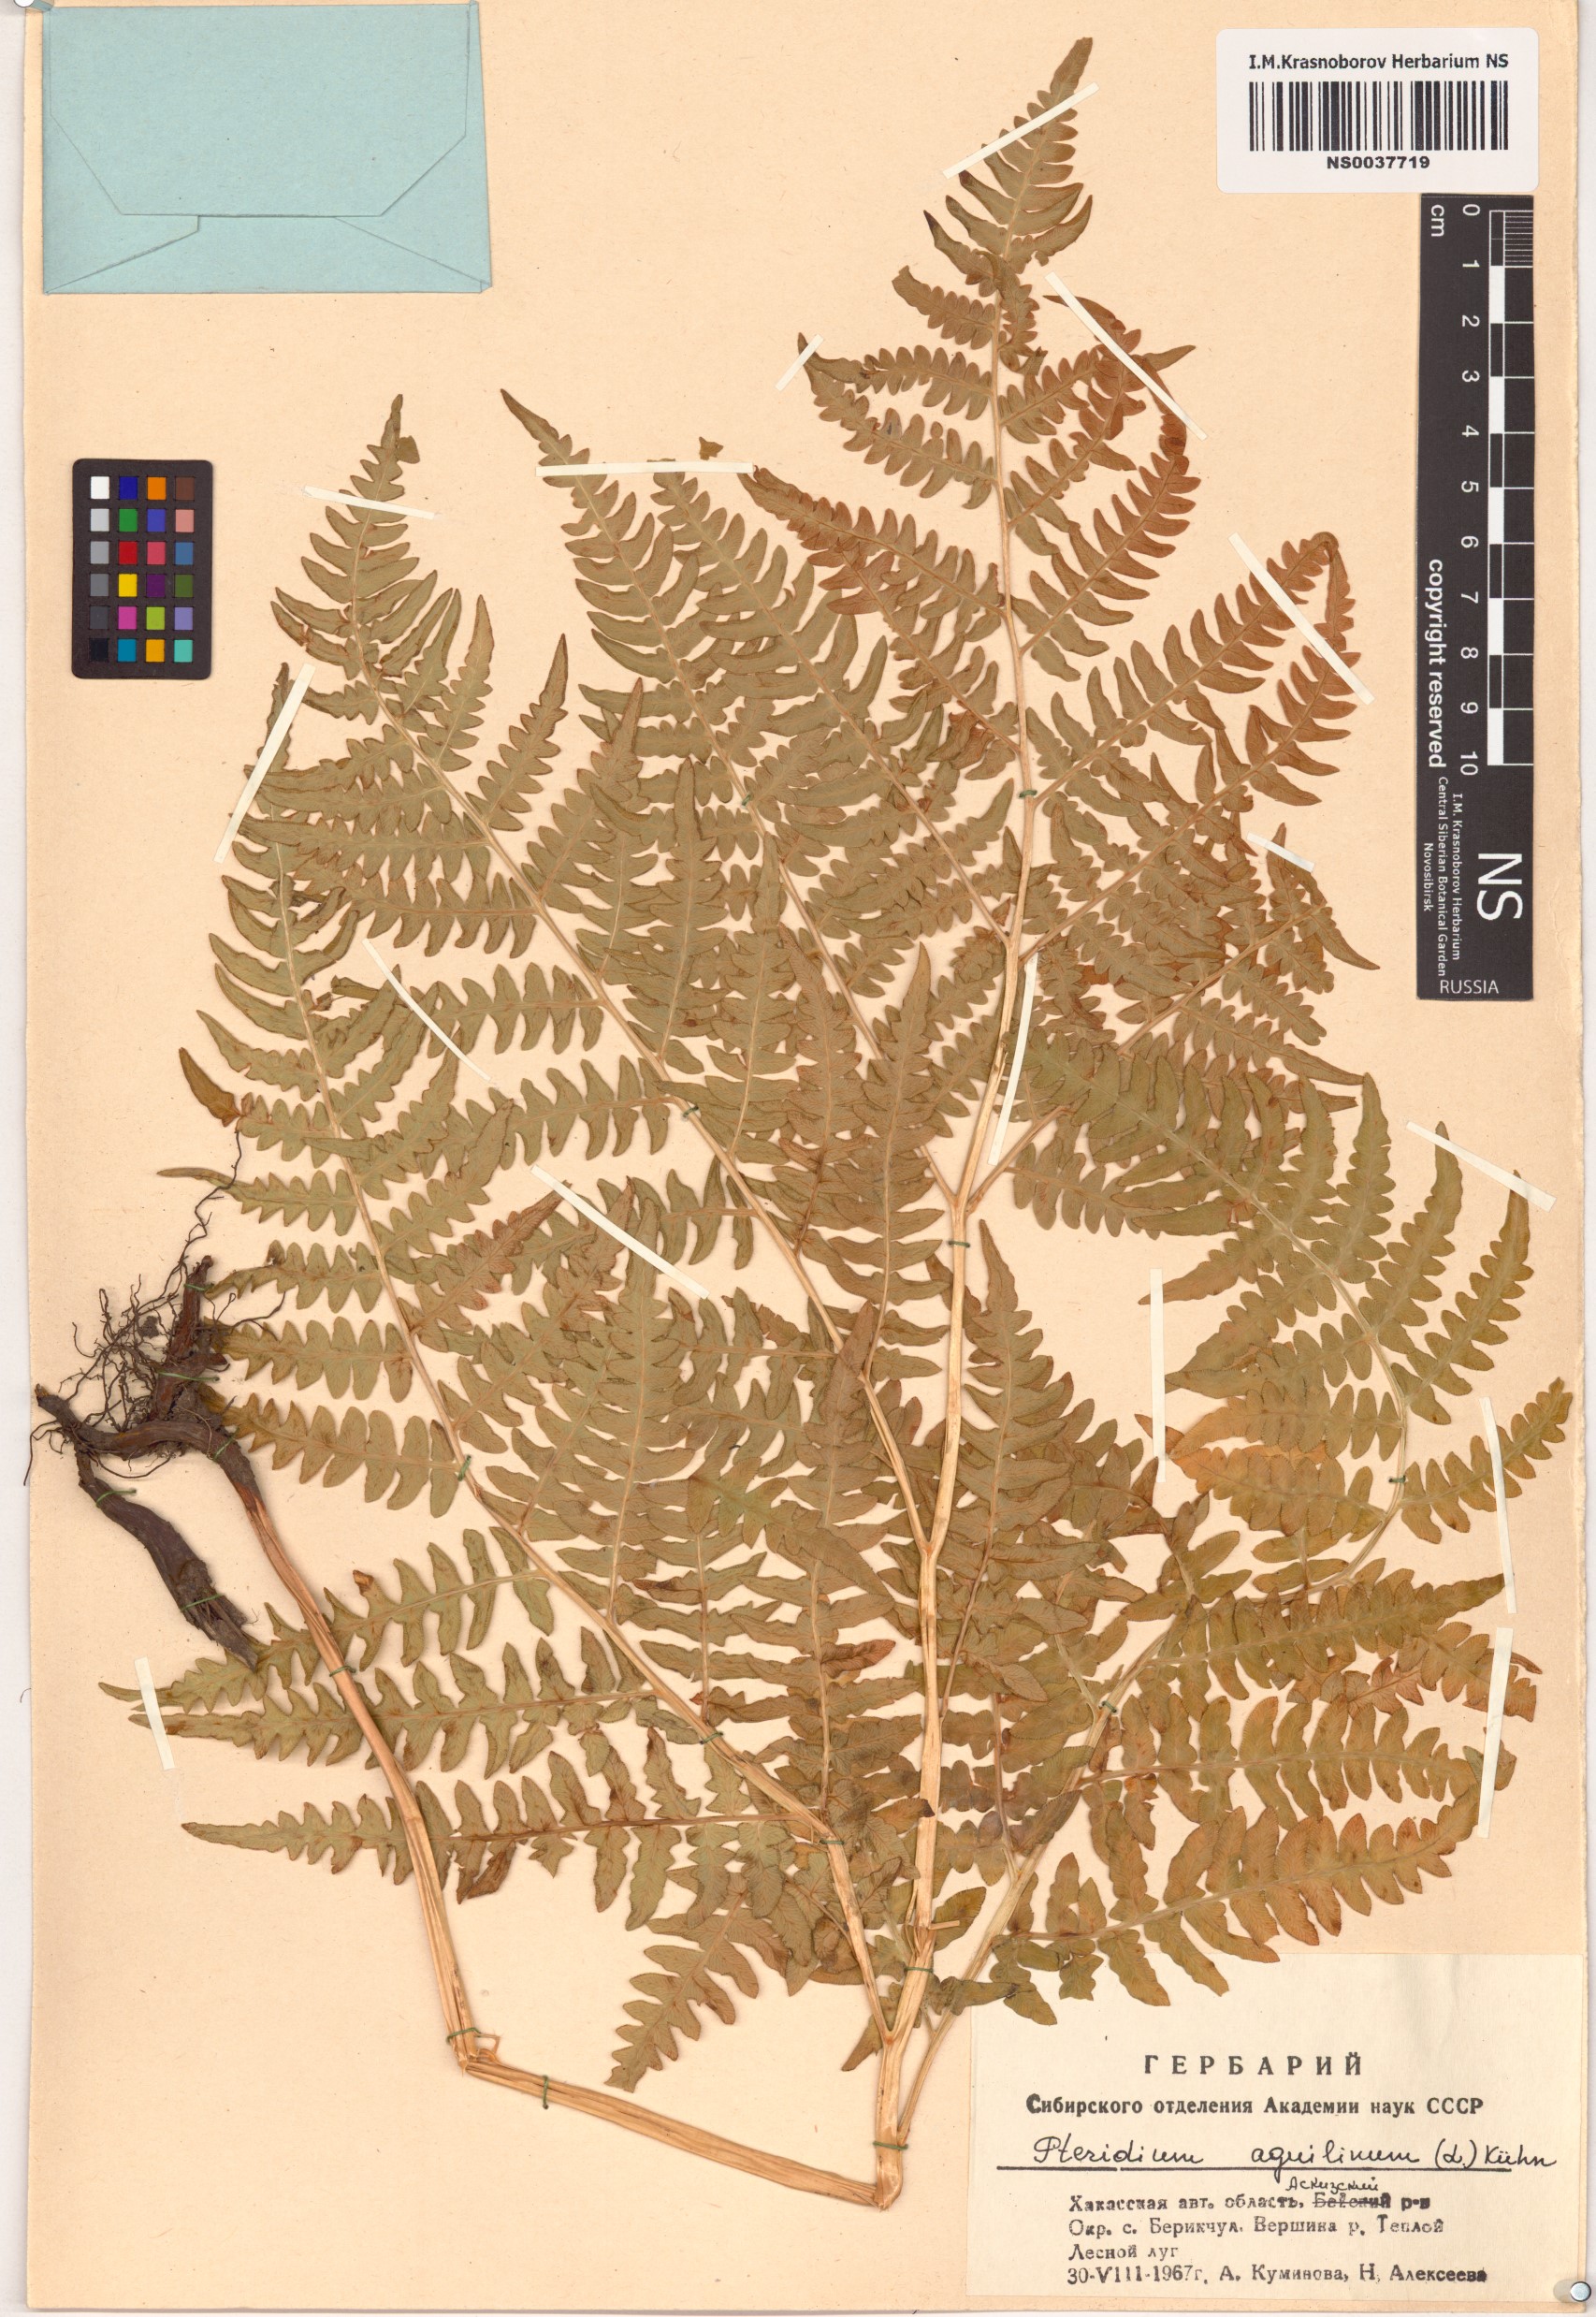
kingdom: Plantae
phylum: Tracheophyta
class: Polypodiopsida
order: Polypodiales
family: Dennstaedtiaceae
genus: Pteridium
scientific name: Pteridium aquilinum
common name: Bracken
